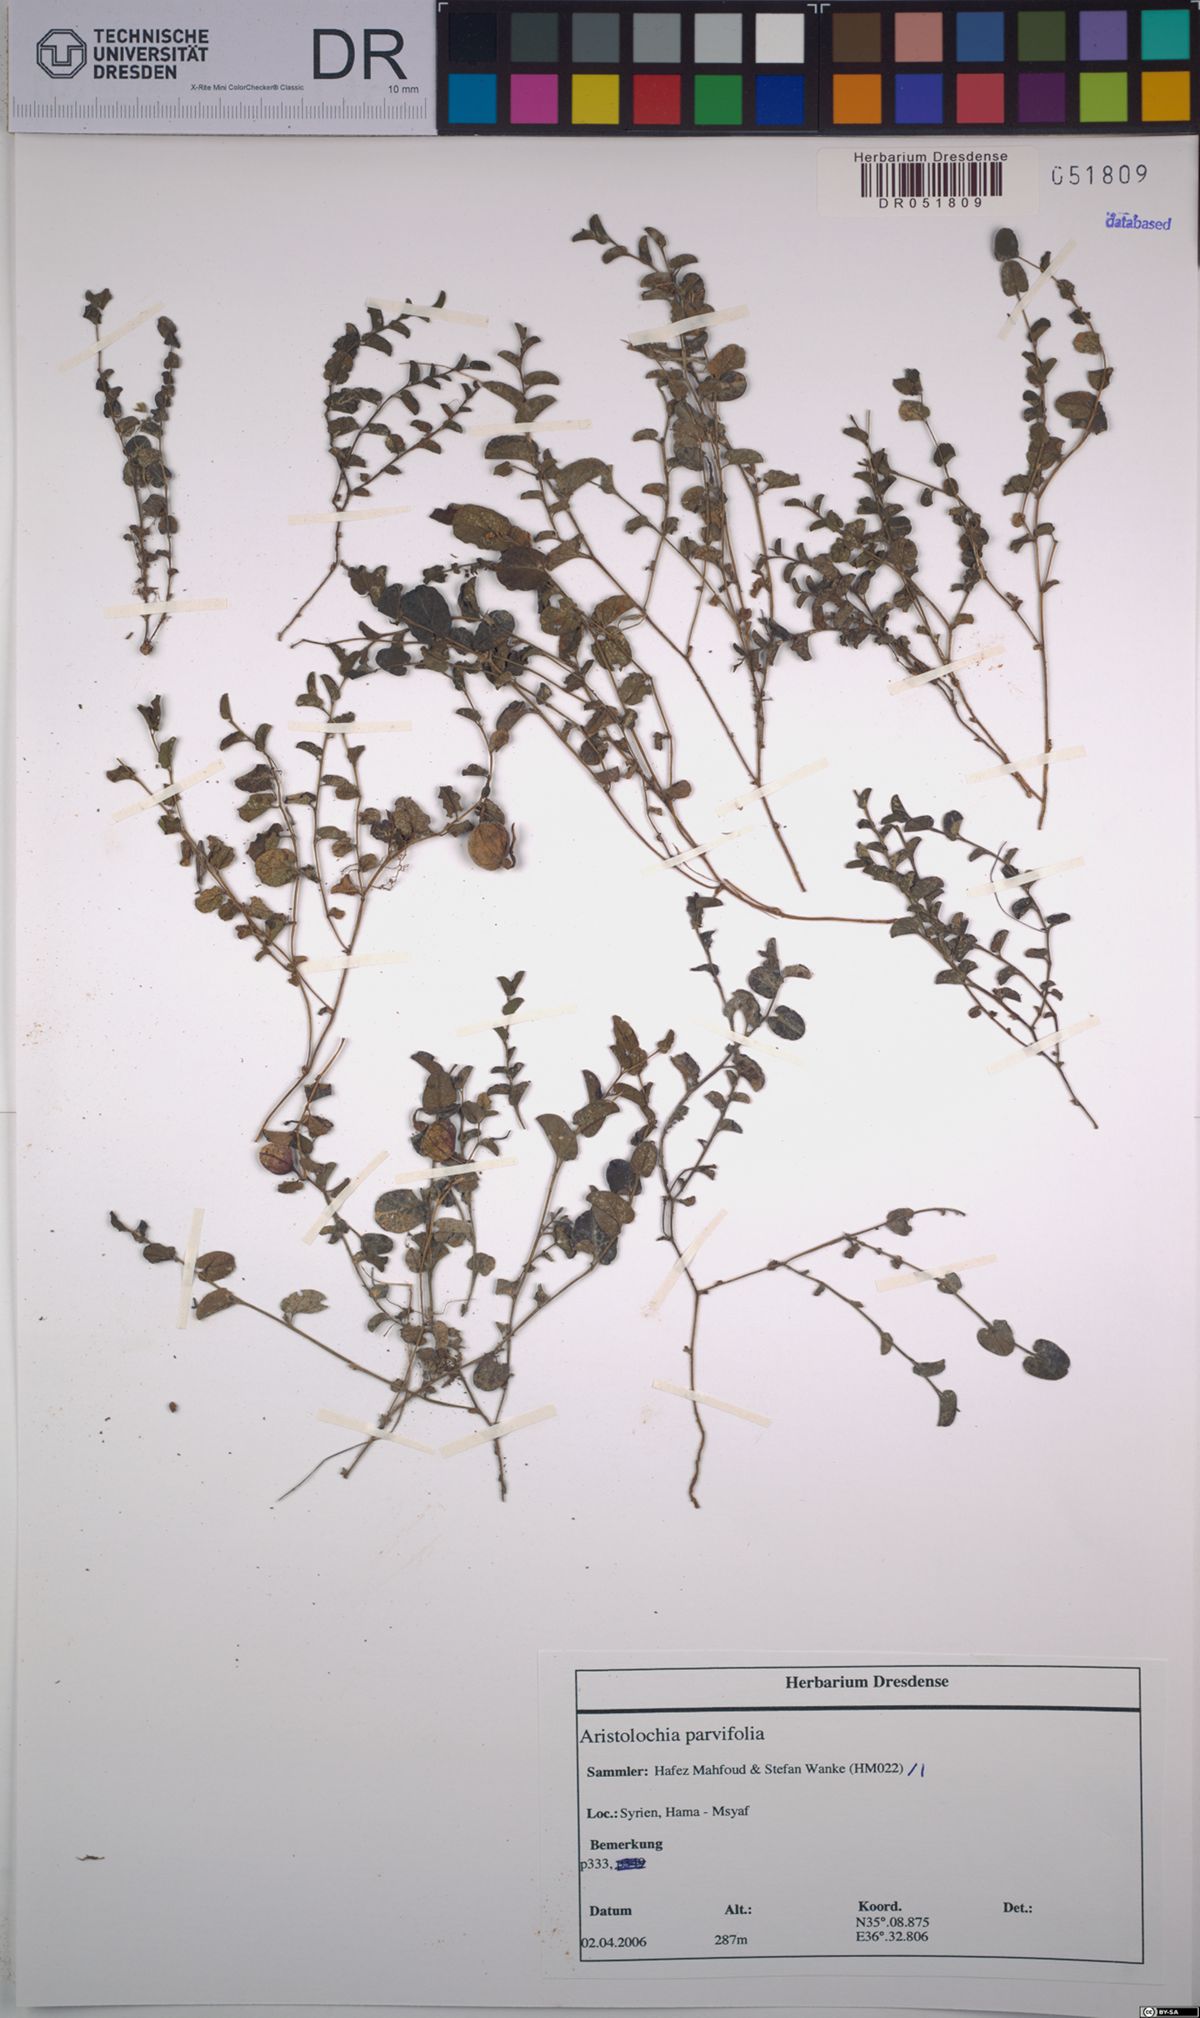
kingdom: Plantae
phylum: Tracheophyta
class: Magnoliopsida
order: Piperales
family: Aristolochiaceae
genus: Aristolochia
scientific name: Aristolochia parvifolia
